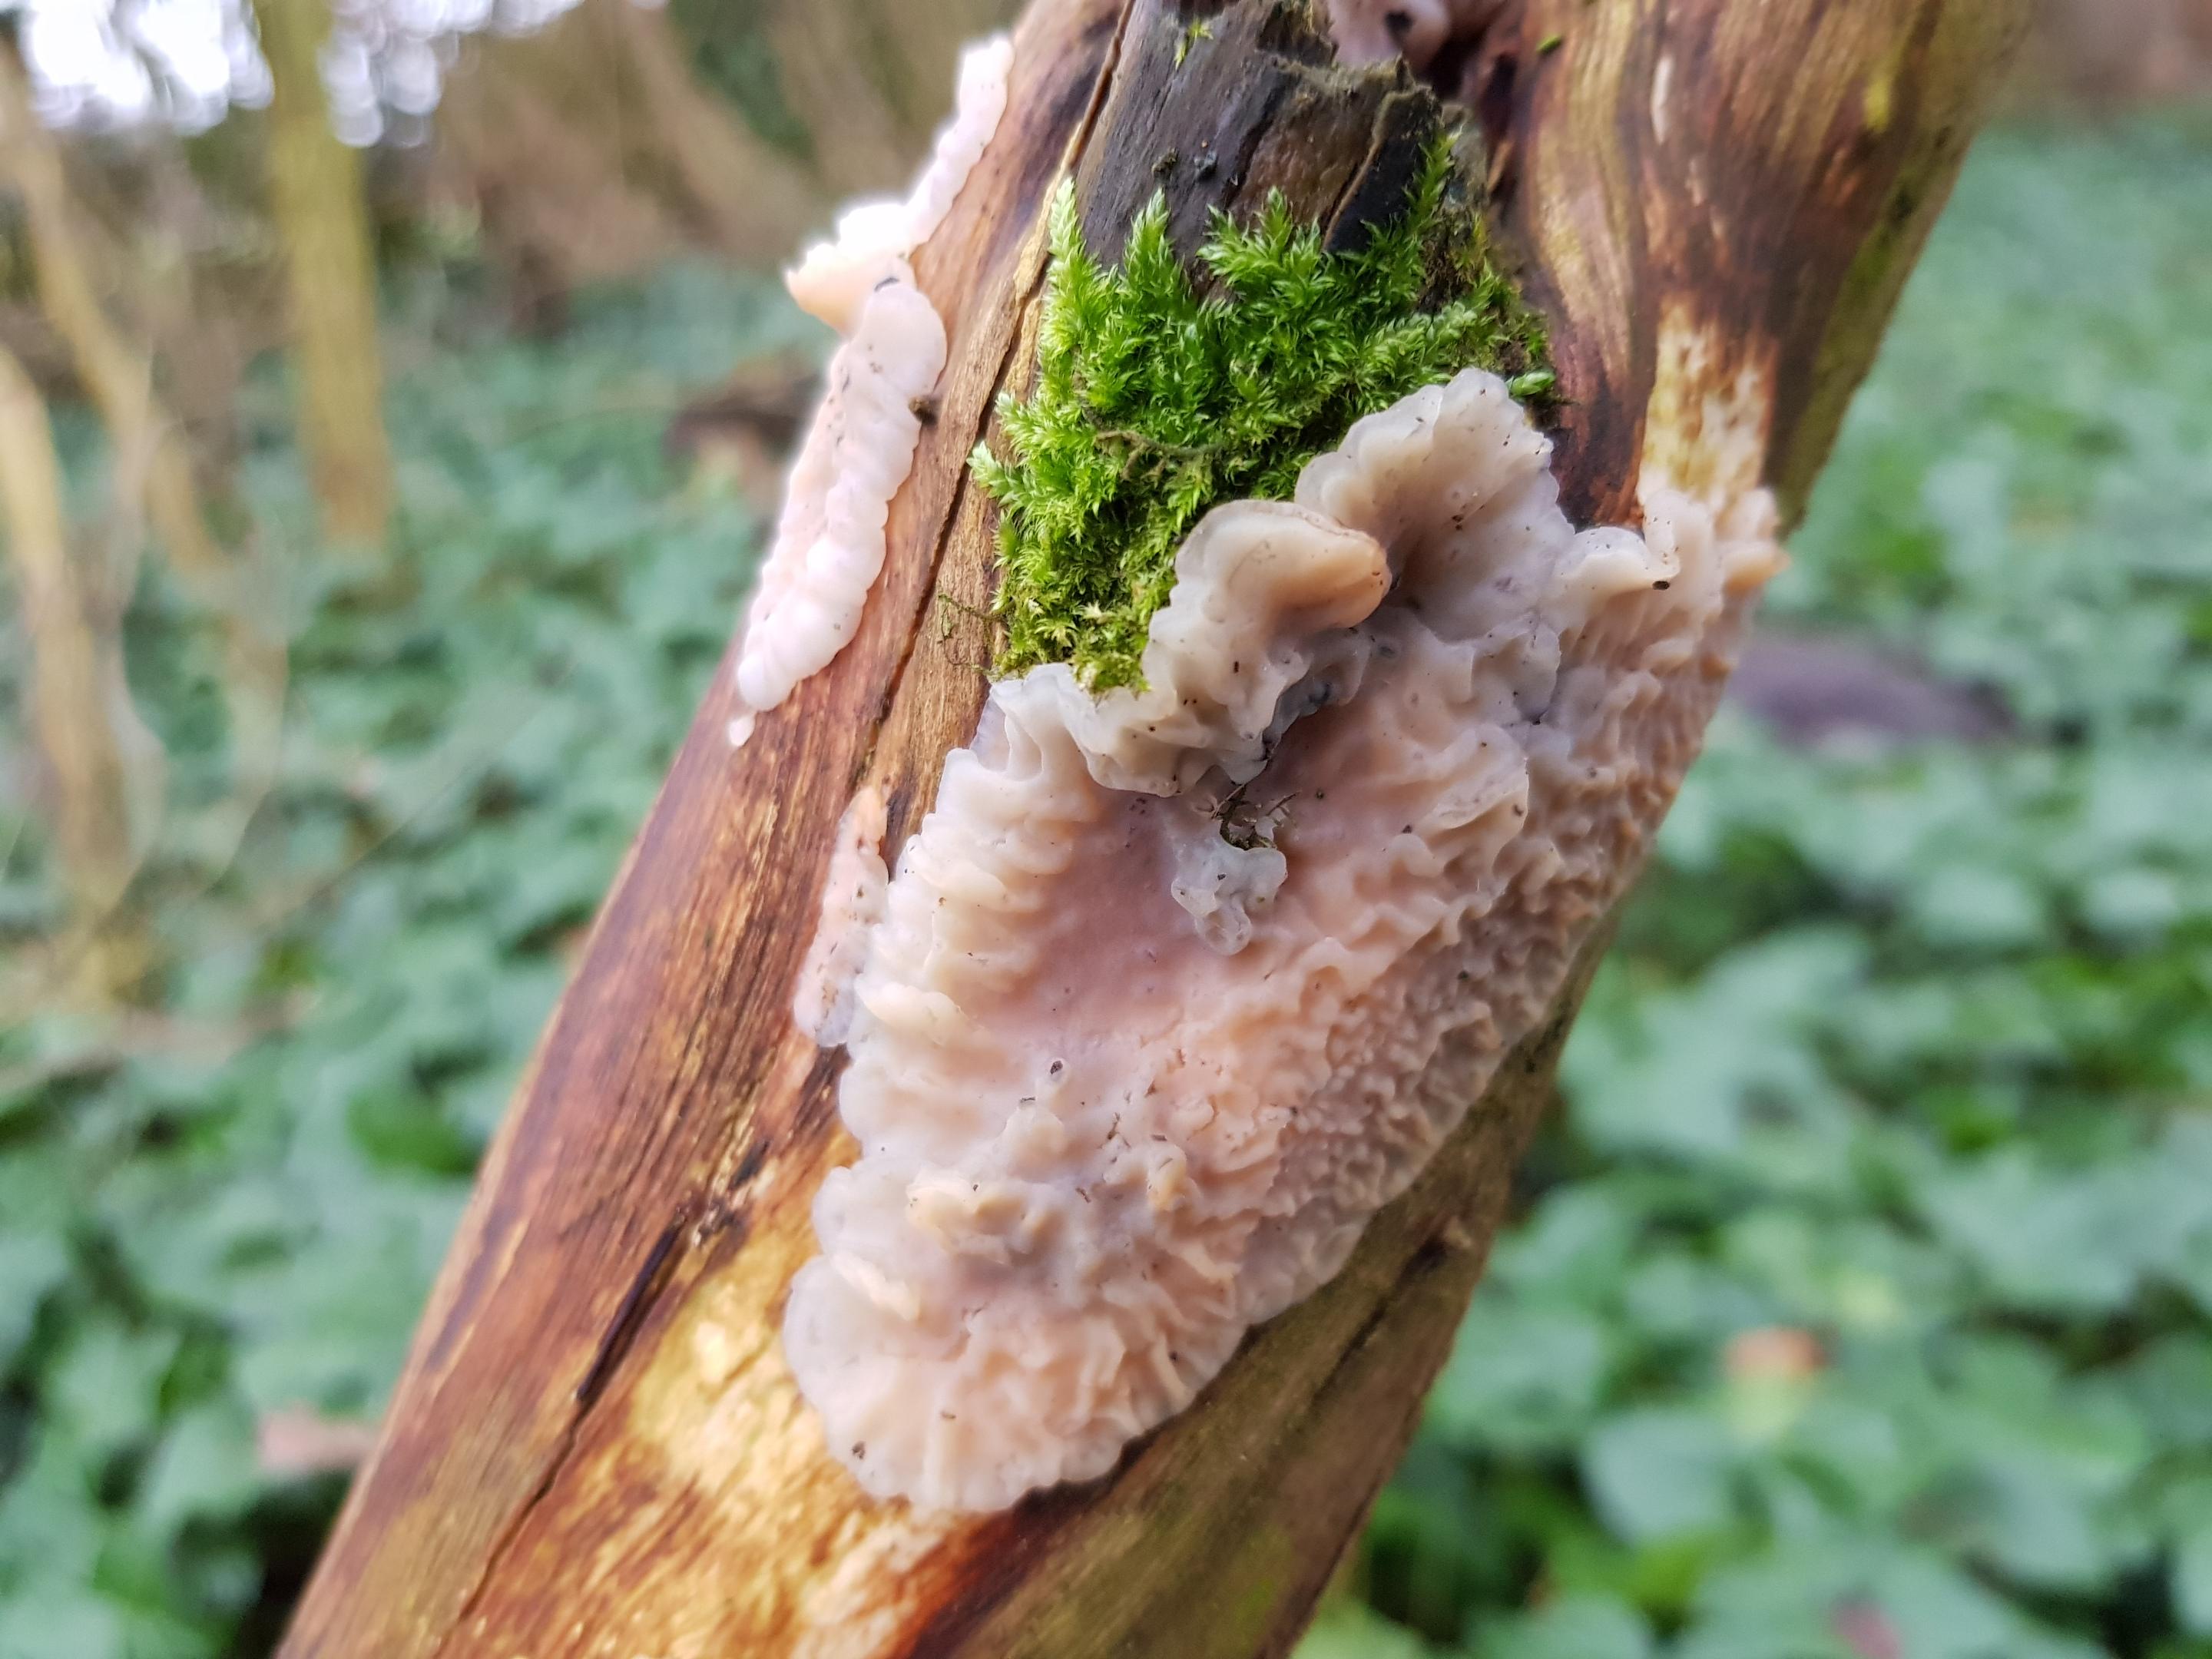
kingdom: Fungi
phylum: Basidiomycota
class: Agaricomycetes
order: Auriculariales
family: Auriculariaceae
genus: Exidia
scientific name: Exidia thuretiana
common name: hvidlig bævretop
